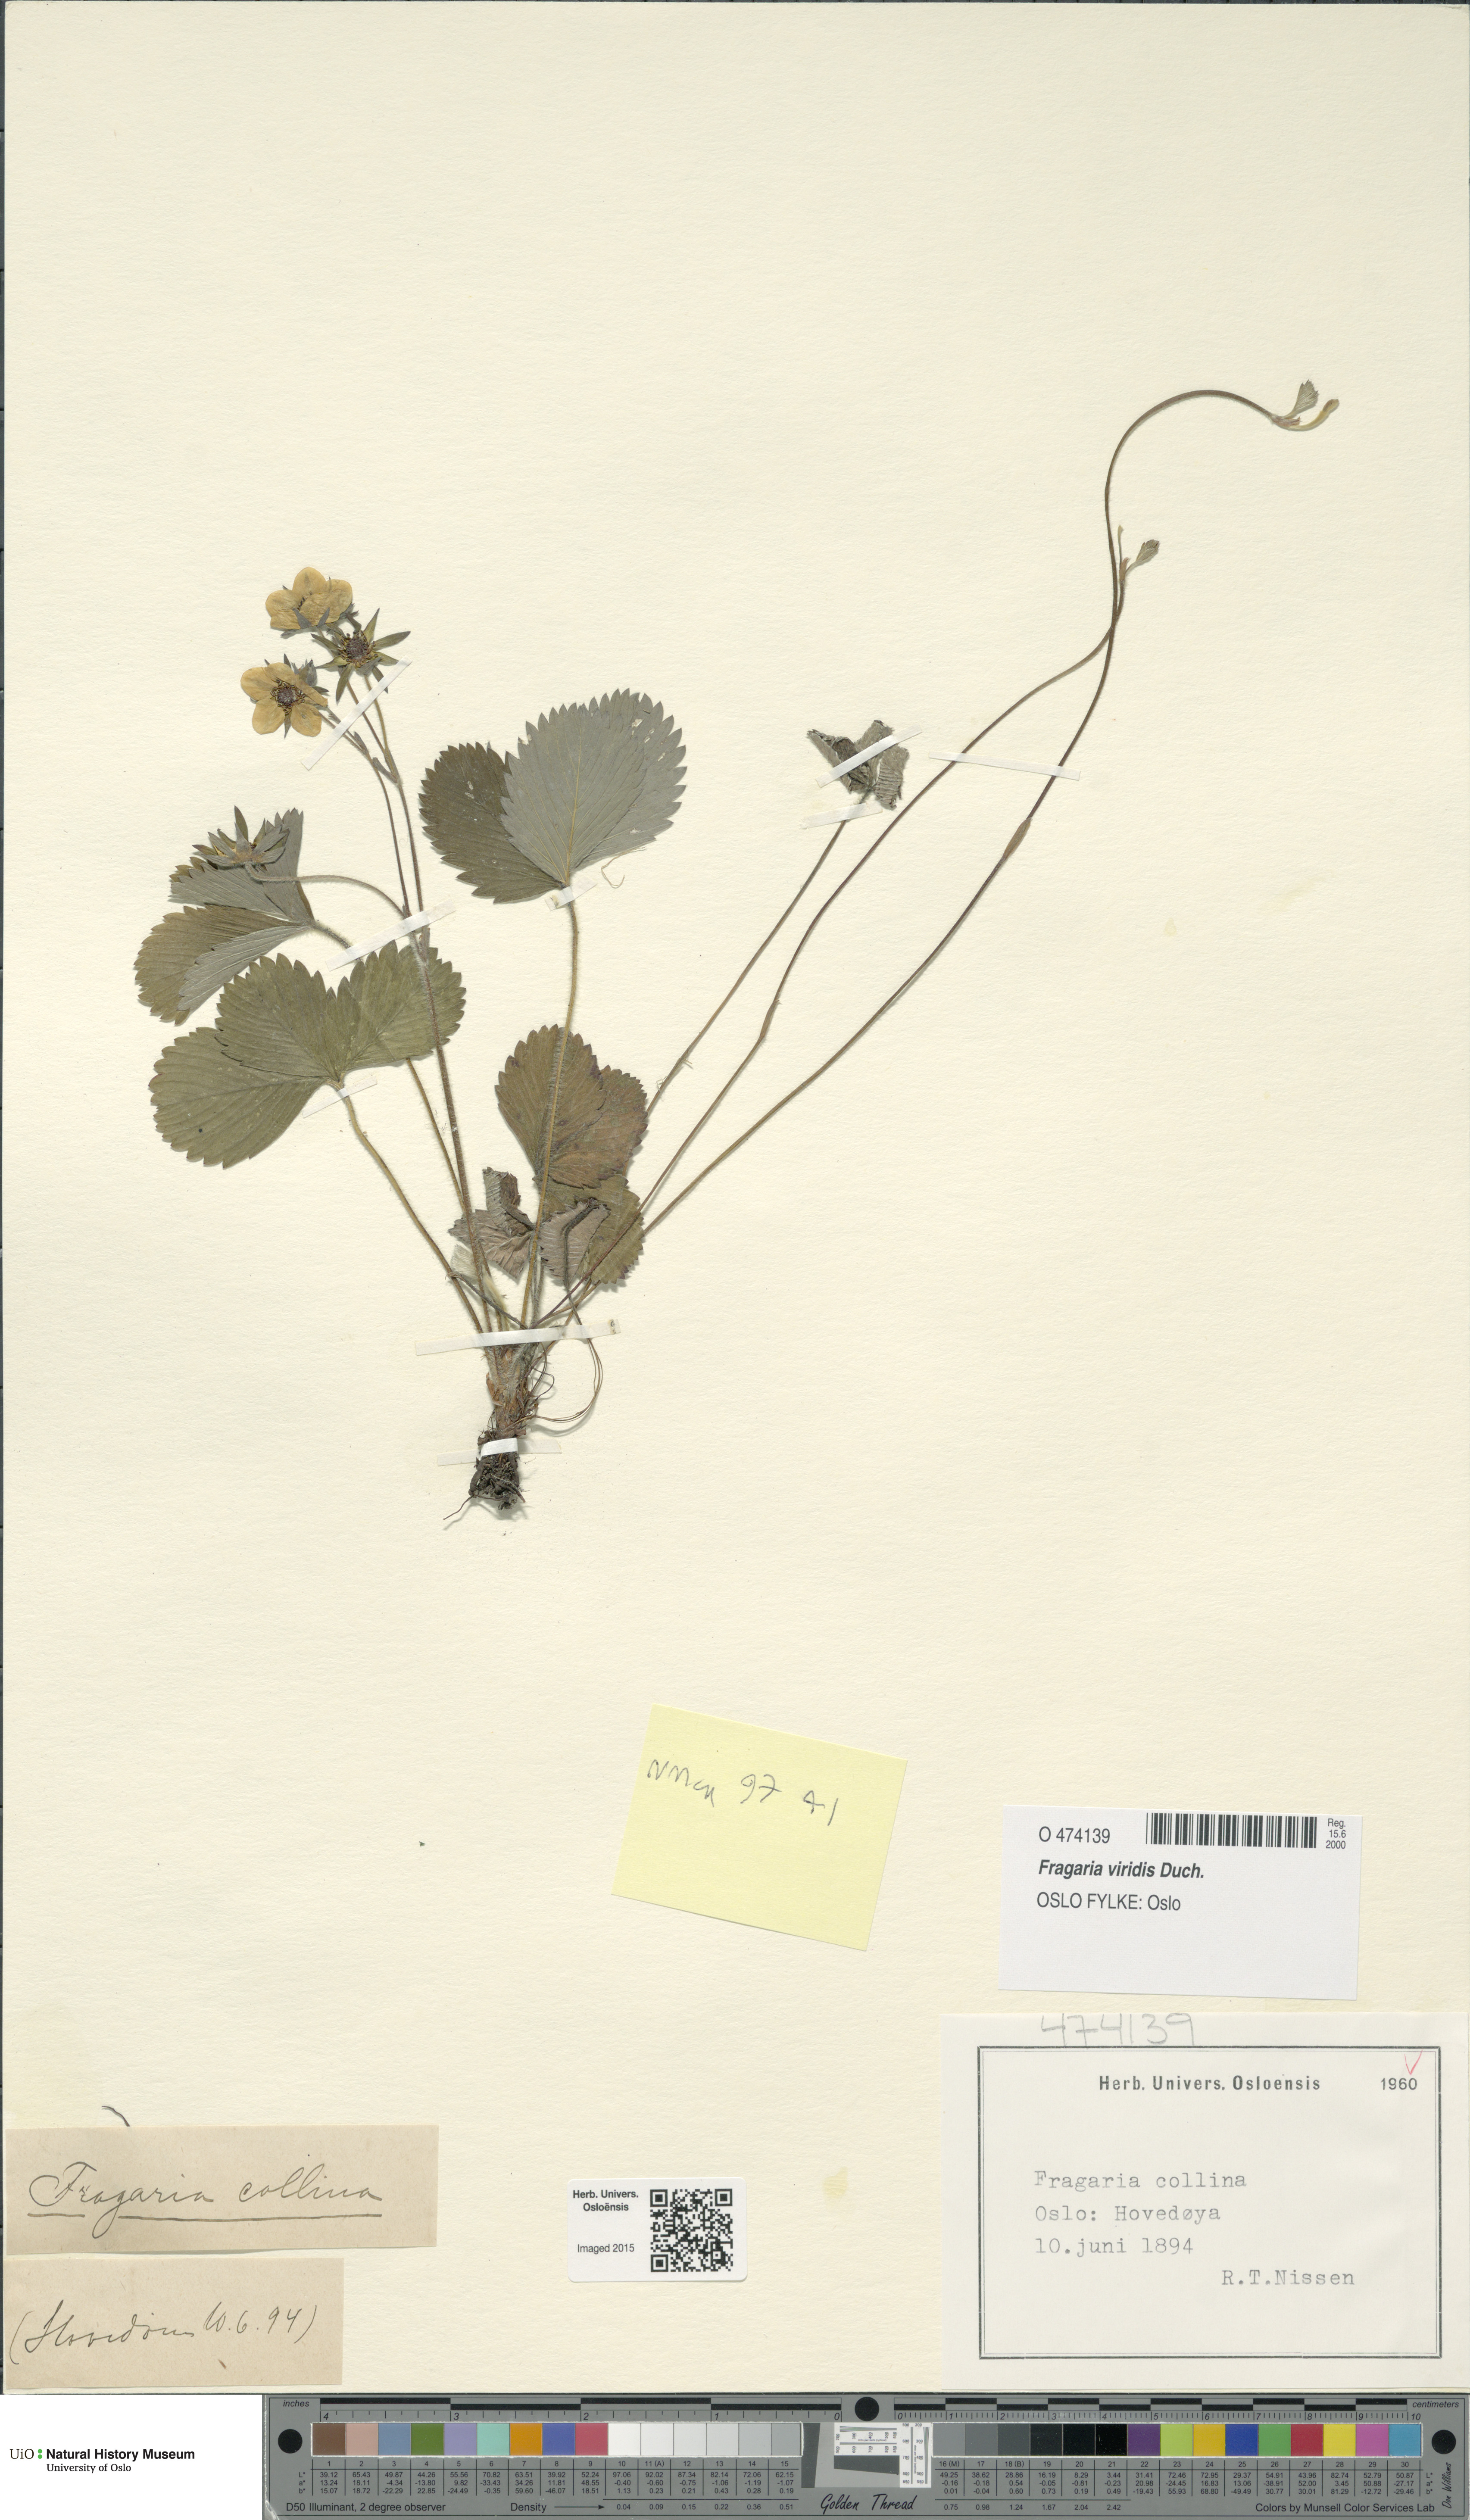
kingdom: Plantae
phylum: Tracheophyta
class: Magnoliopsida
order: Rosales
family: Rosaceae
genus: Fragaria
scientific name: Fragaria viridis
